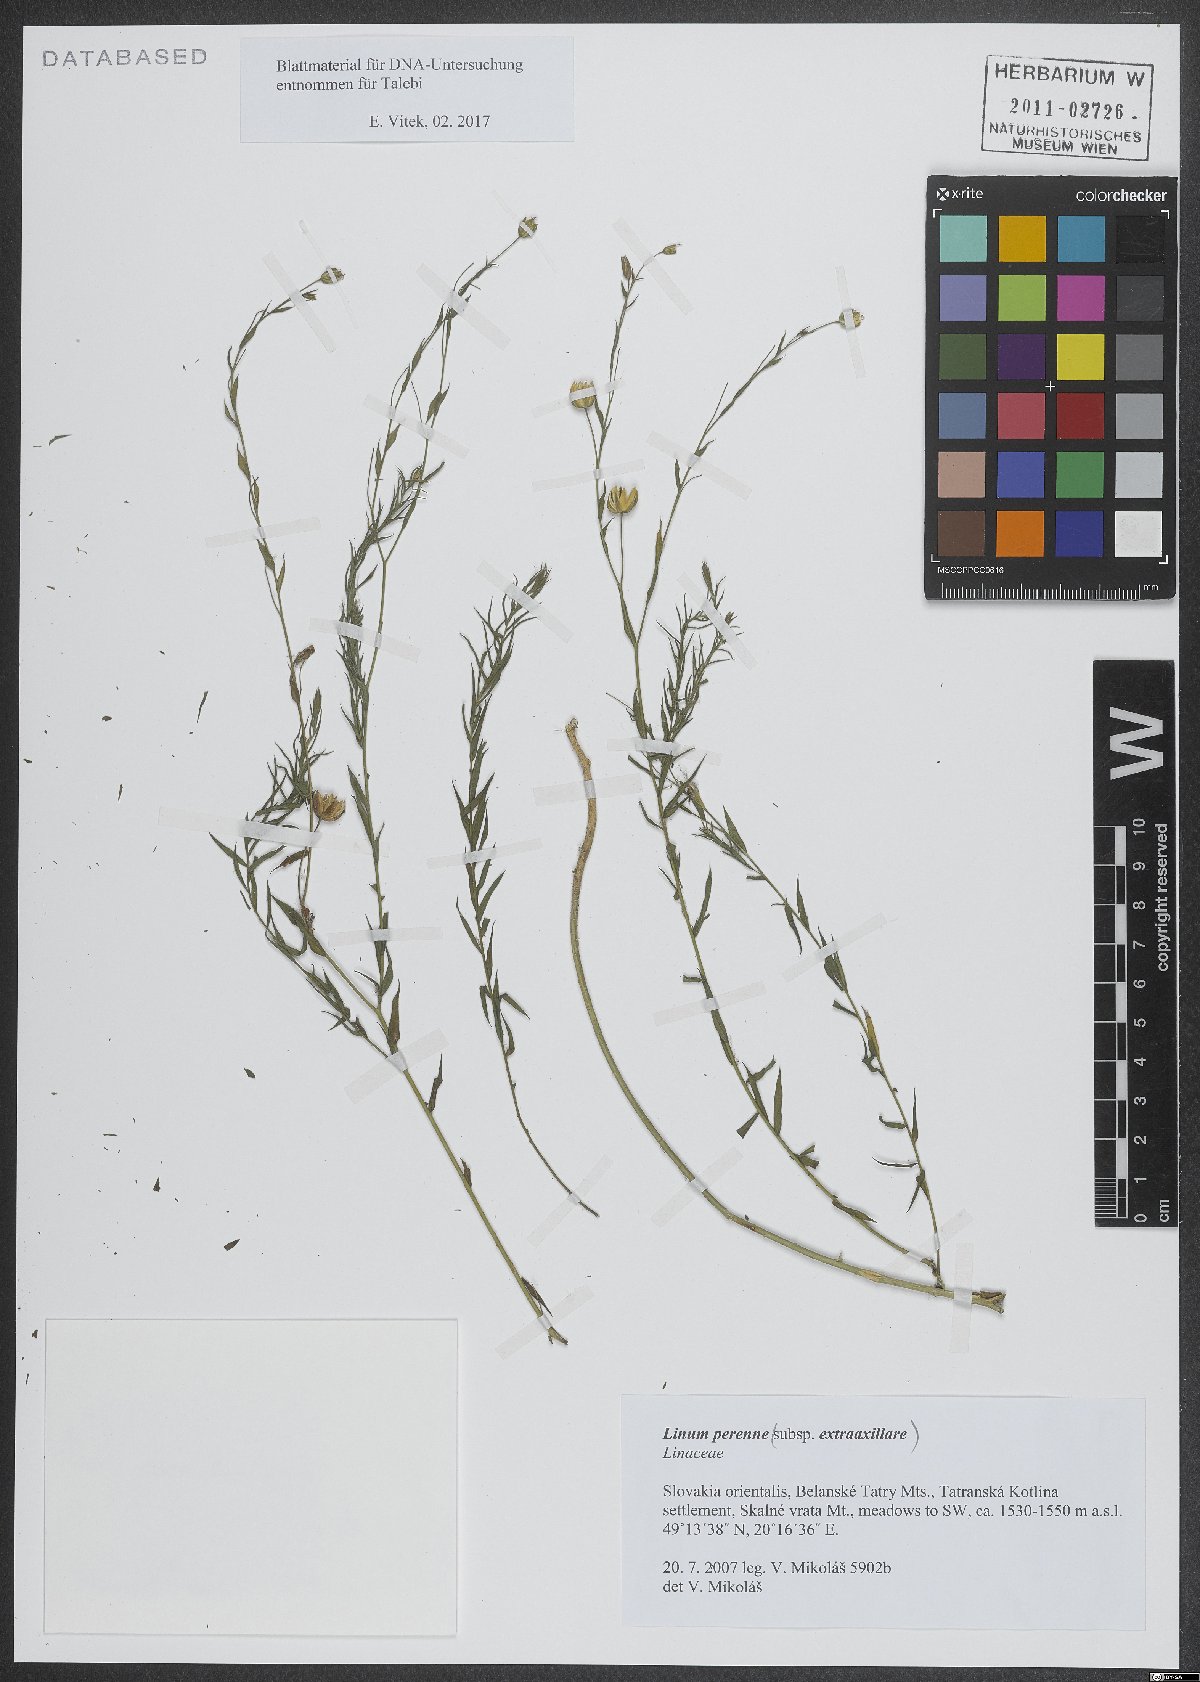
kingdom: Plantae
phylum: Tracheophyta
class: Magnoliopsida
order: Malpighiales
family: Linaceae
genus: Linum
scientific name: Linum perenne
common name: Blue flax
